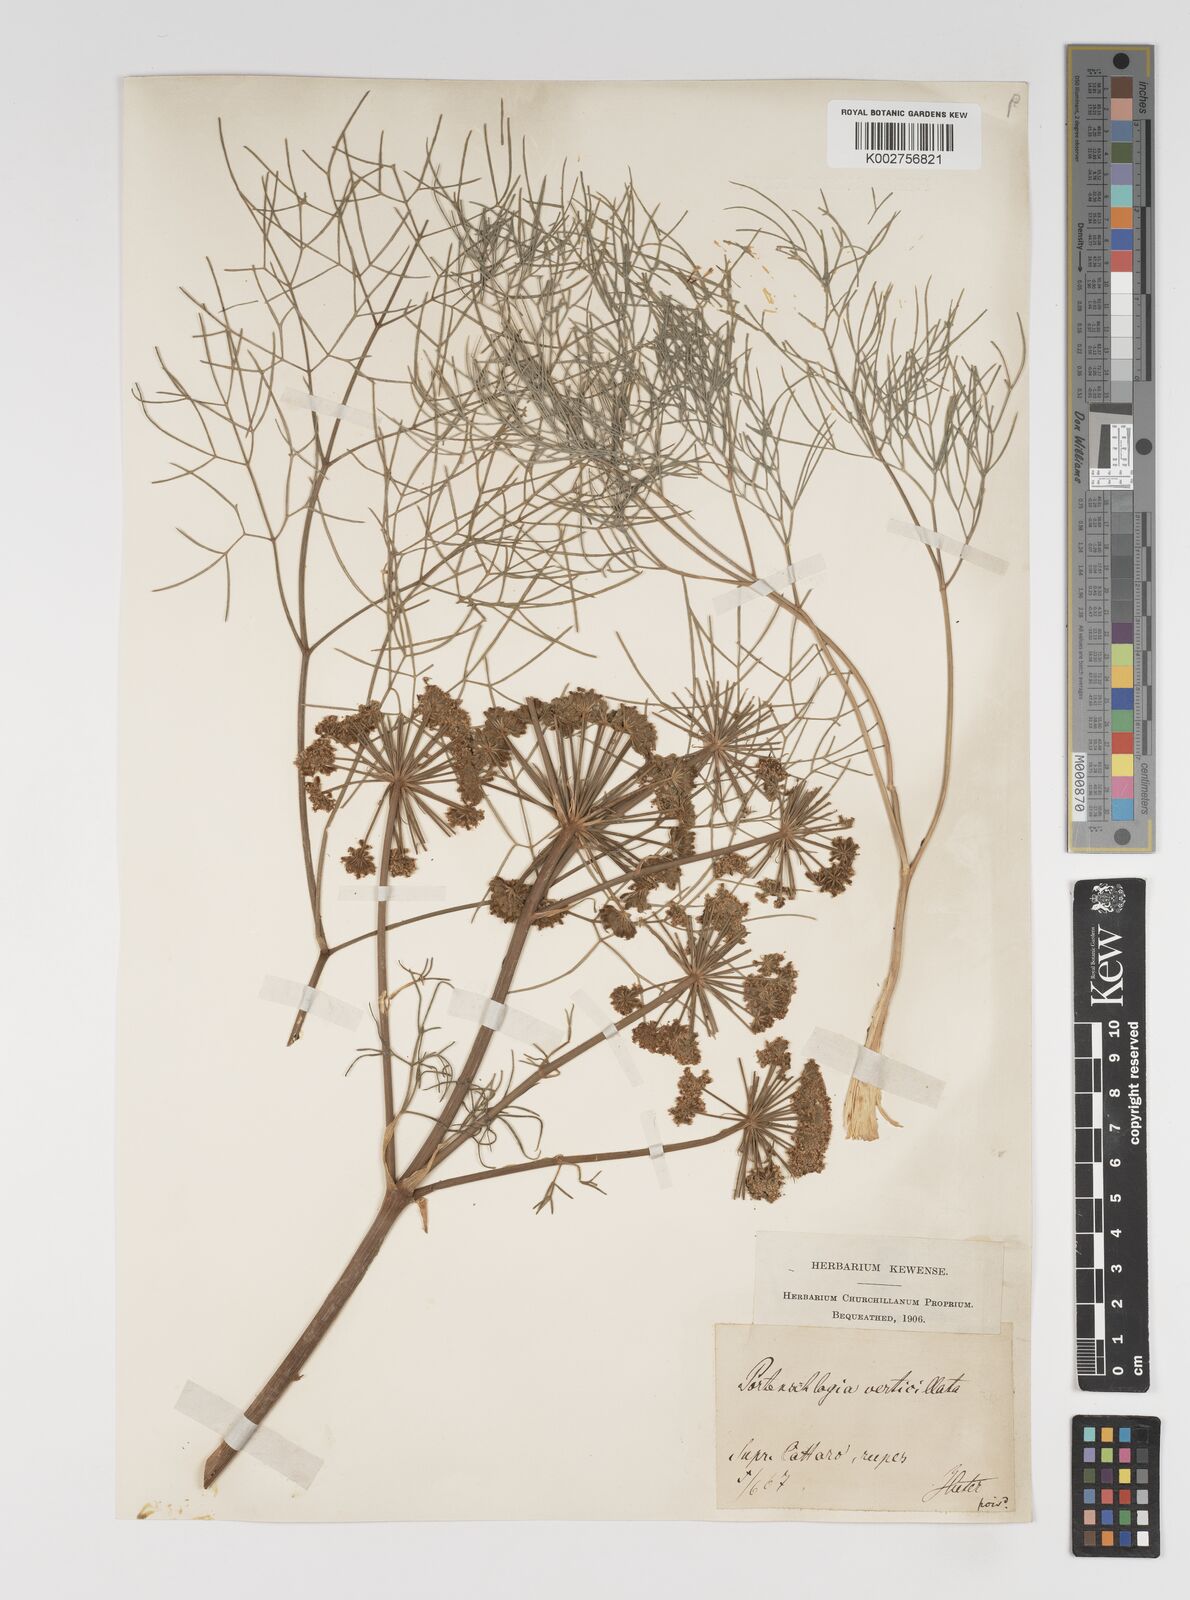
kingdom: Plantae
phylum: Tracheophyta
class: Magnoliopsida
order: Apiales
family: Apiaceae
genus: Athamanta
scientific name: Athamanta ramosissima
